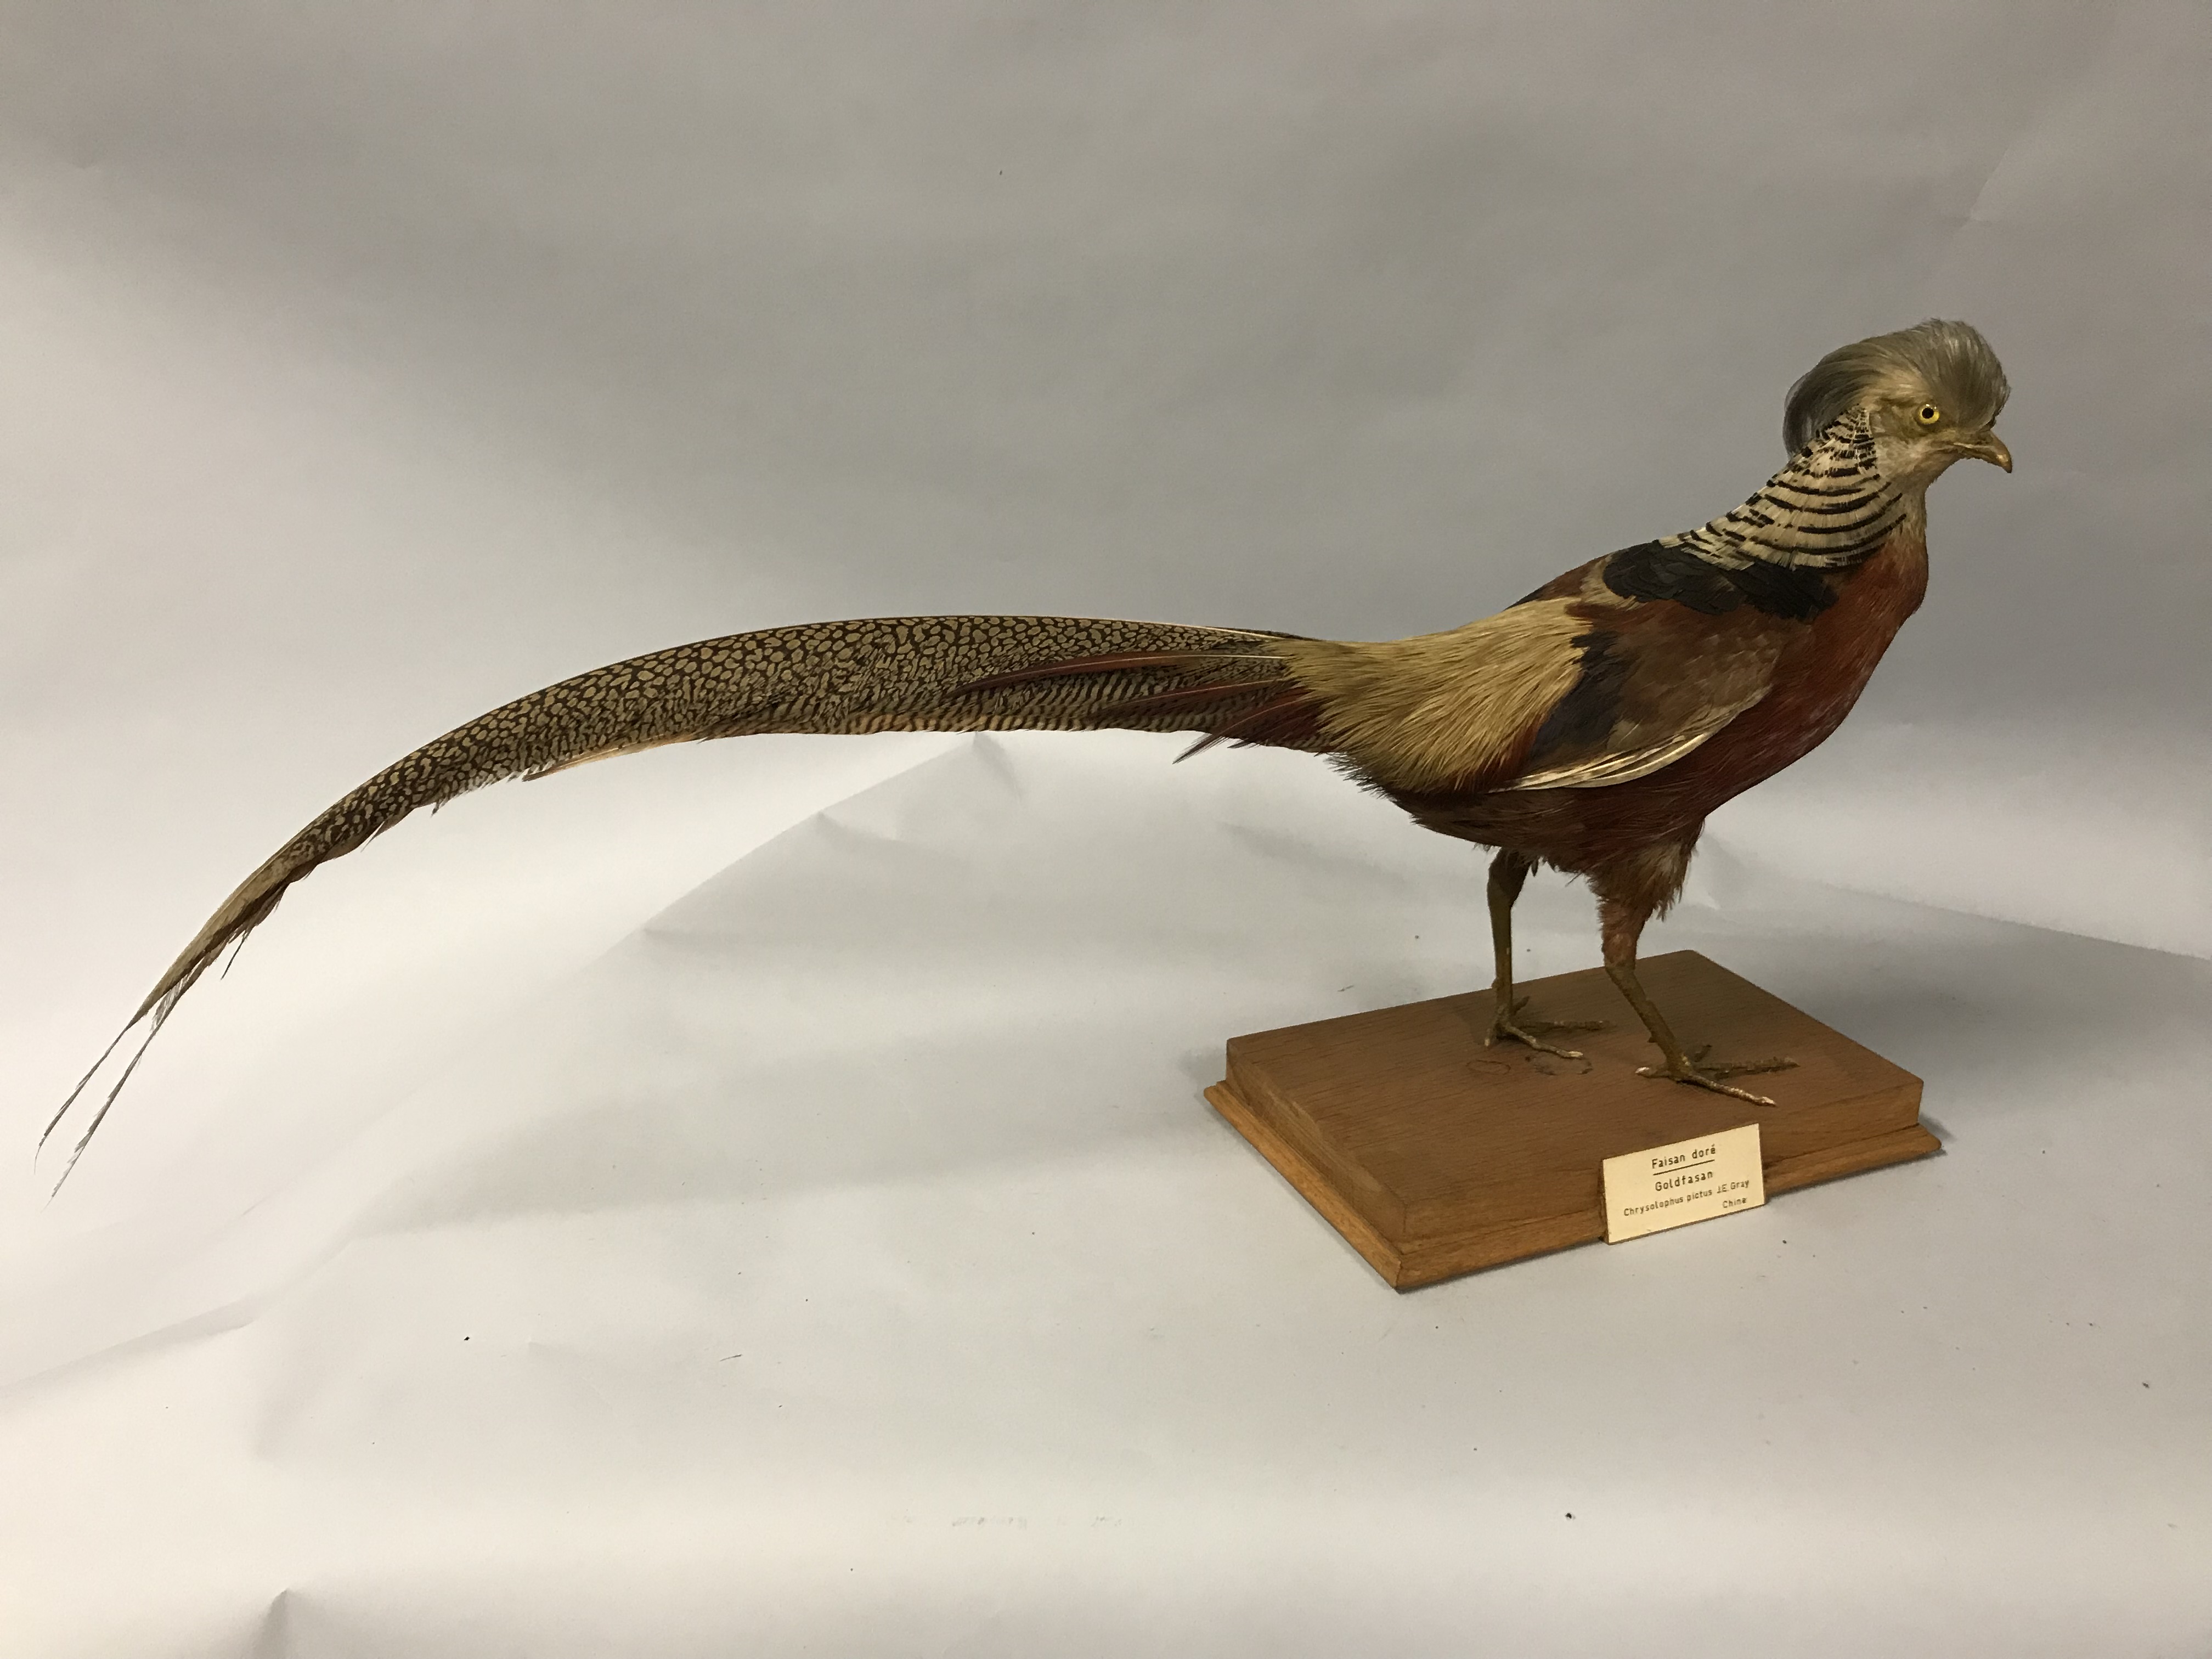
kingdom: Animalia
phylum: Chordata
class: Aves
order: Galliformes
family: Phasianidae
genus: Chrysolophus
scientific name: Chrysolophus pictus
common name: Golden pheasant
